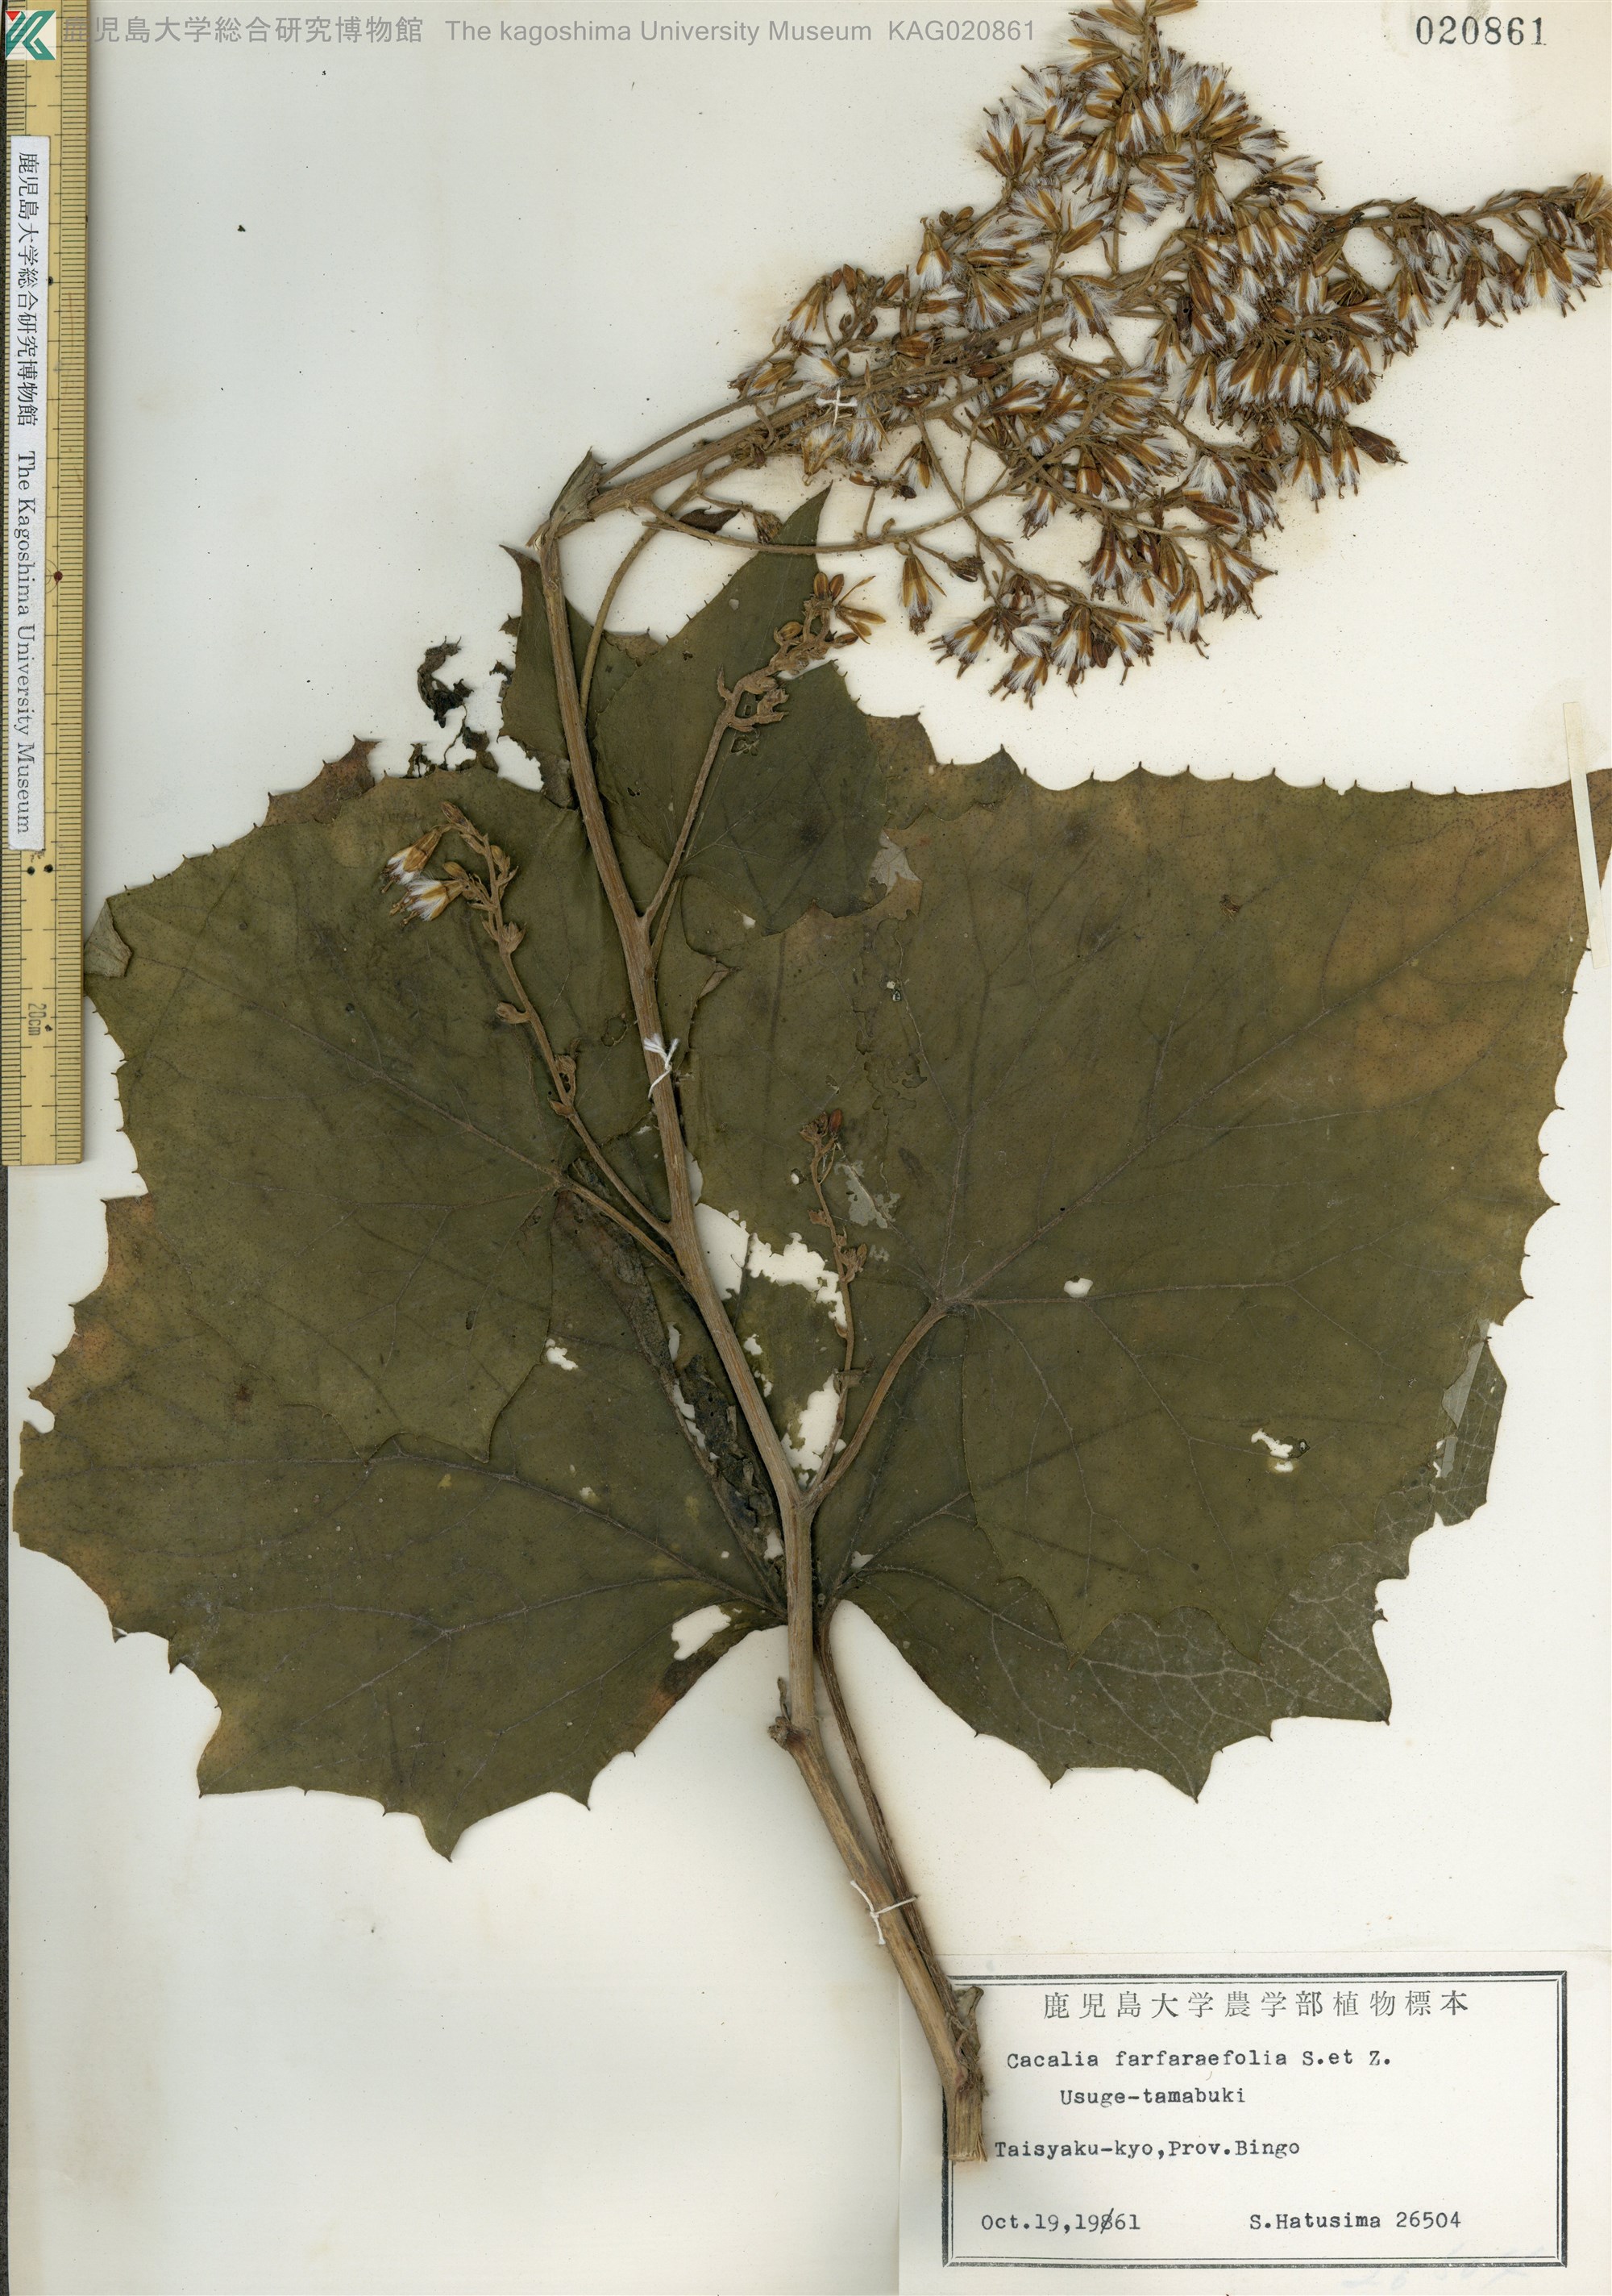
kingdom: Plantae
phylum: Tracheophyta
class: Magnoliopsida
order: Asterales
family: Asteraceae
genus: Parasenecio
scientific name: Parasenecio farfarifolius
